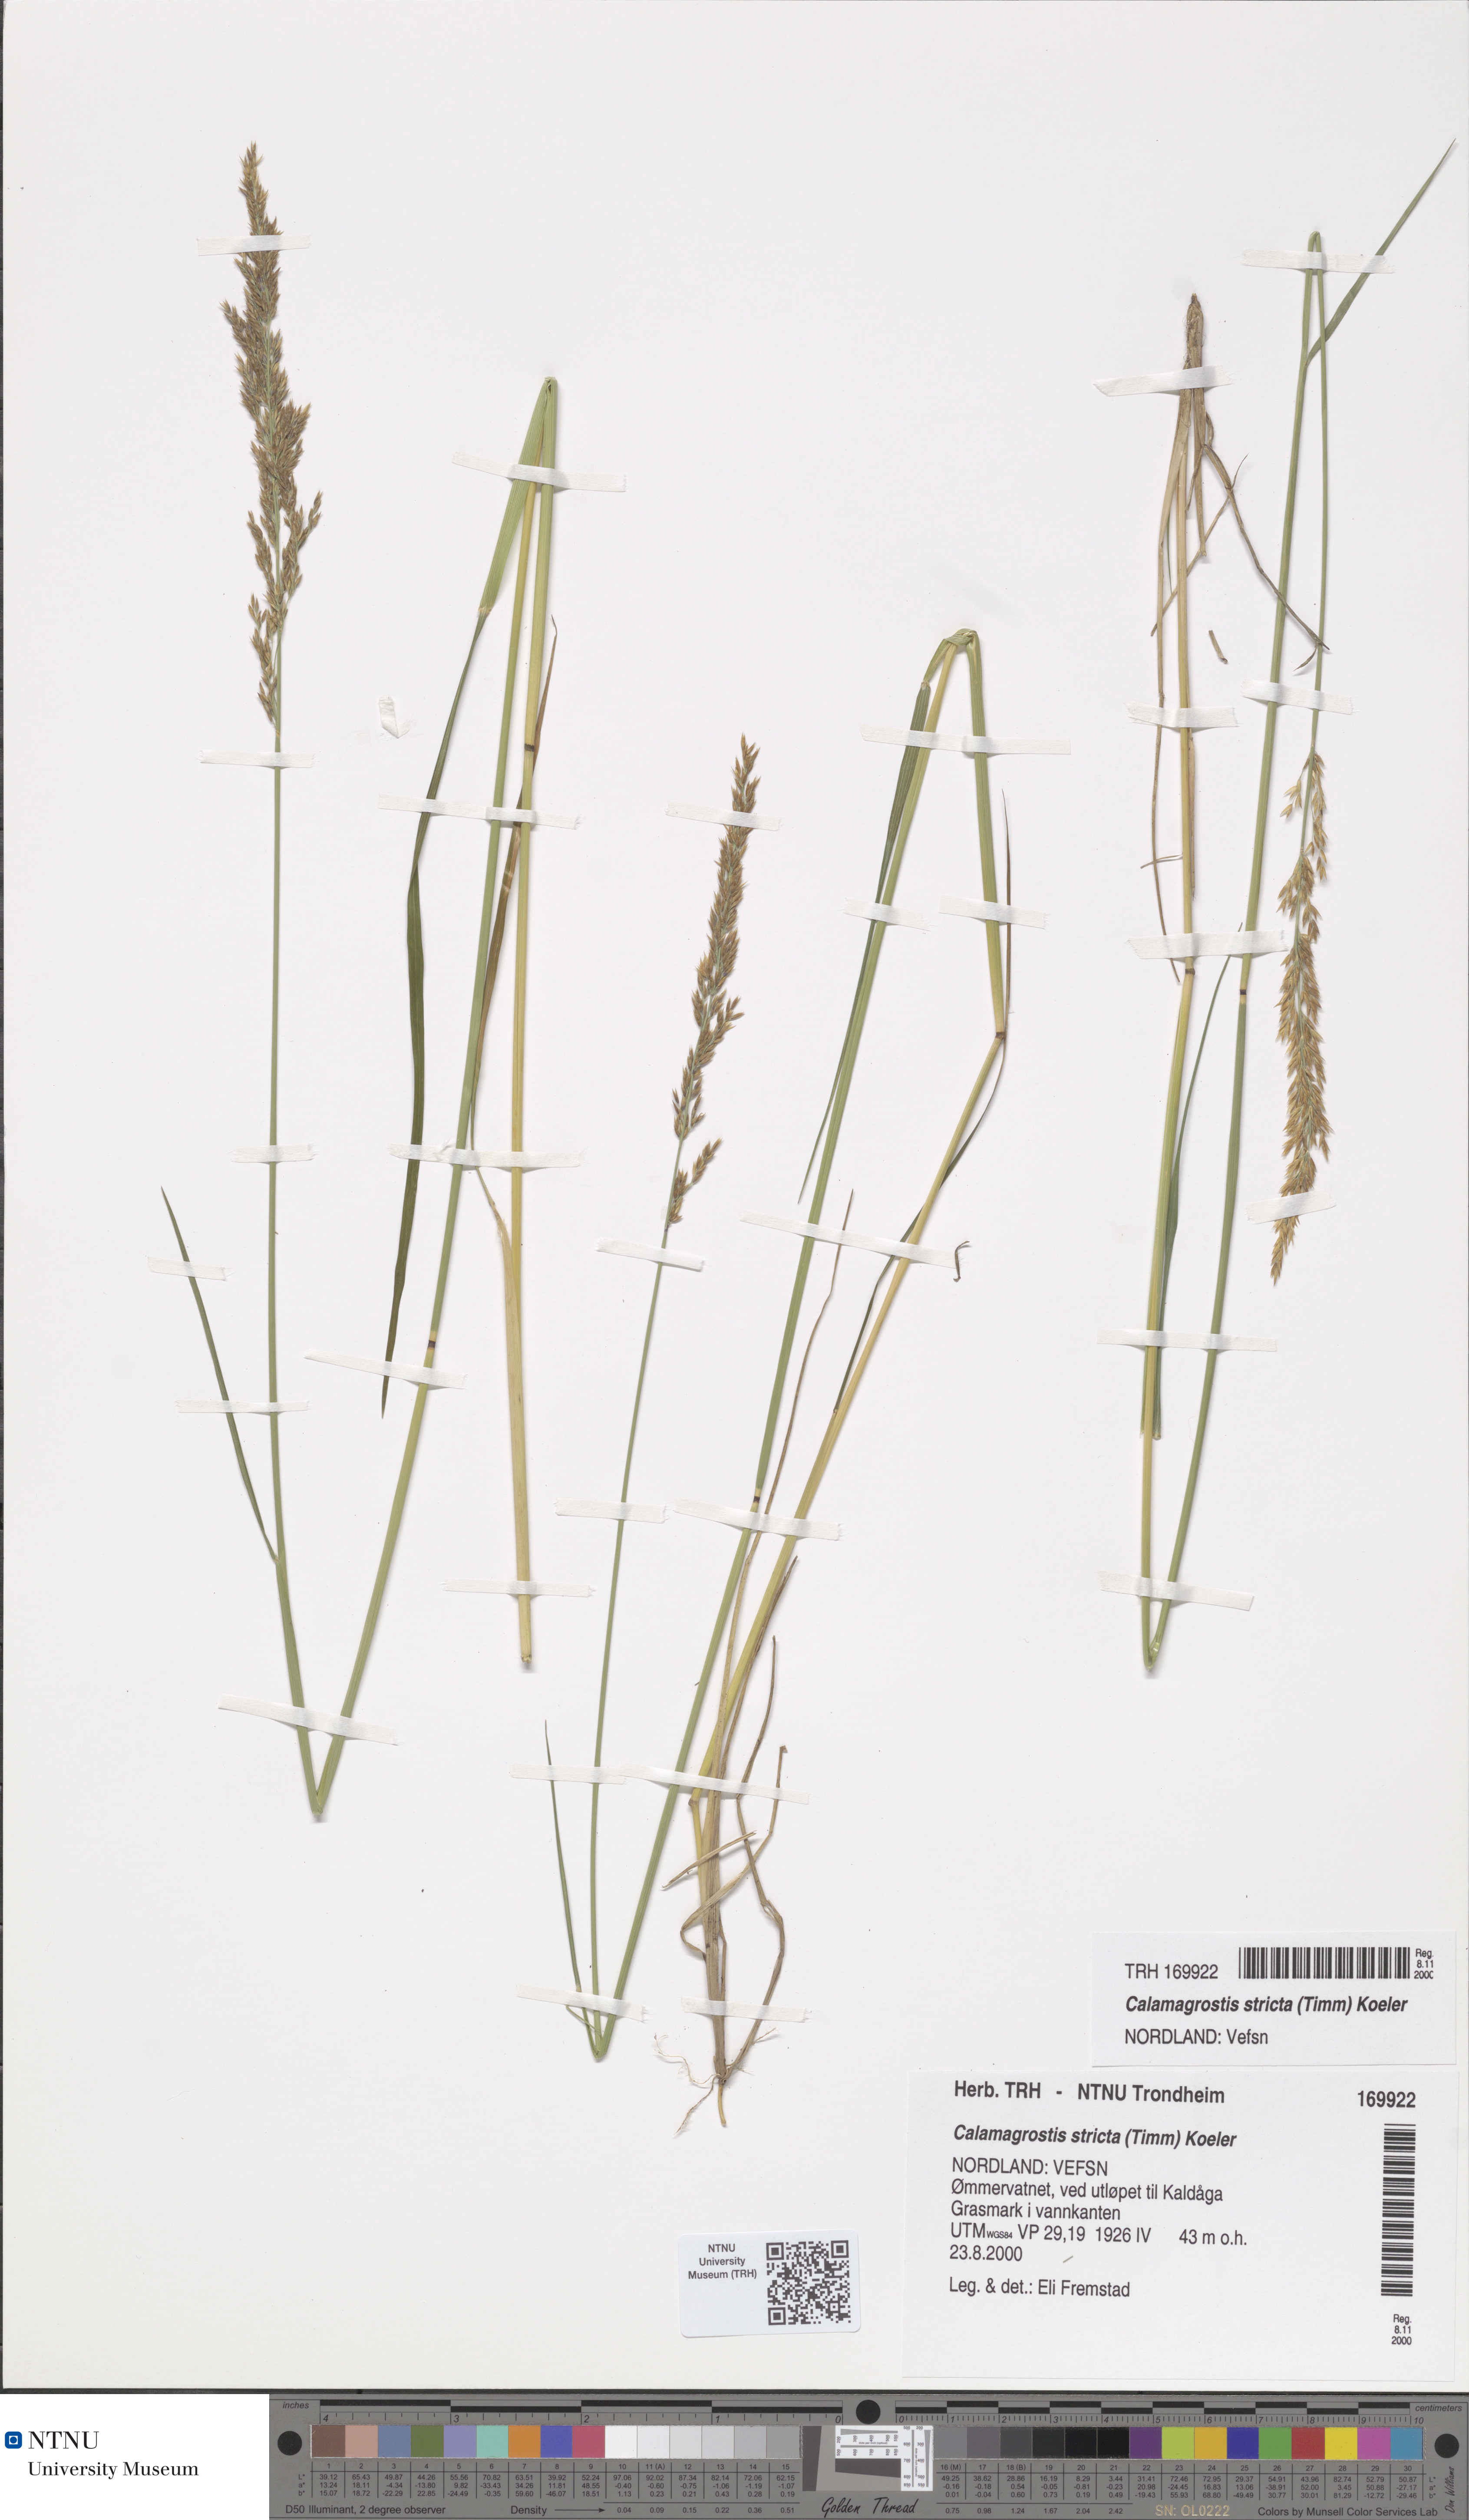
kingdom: Plantae
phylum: Tracheophyta
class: Liliopsida
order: Poales
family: Poaceae
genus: Achnatherum
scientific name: Achnatherum calamagrostis
